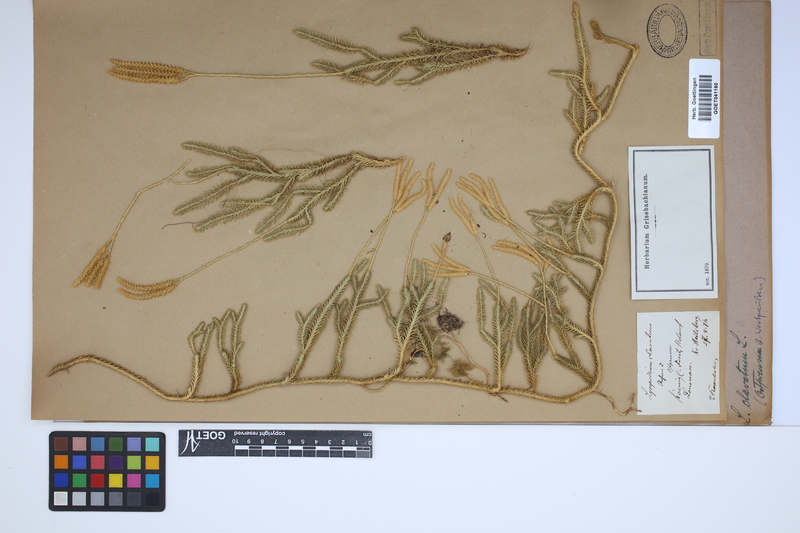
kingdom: Plantae
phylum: Tracheophyta
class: Lycopodiopsida
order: Lycopodiales
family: Lycopodiaceae
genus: Lycopodium
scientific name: Lycopodium clavatum
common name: Stag's-horn clubmoss
